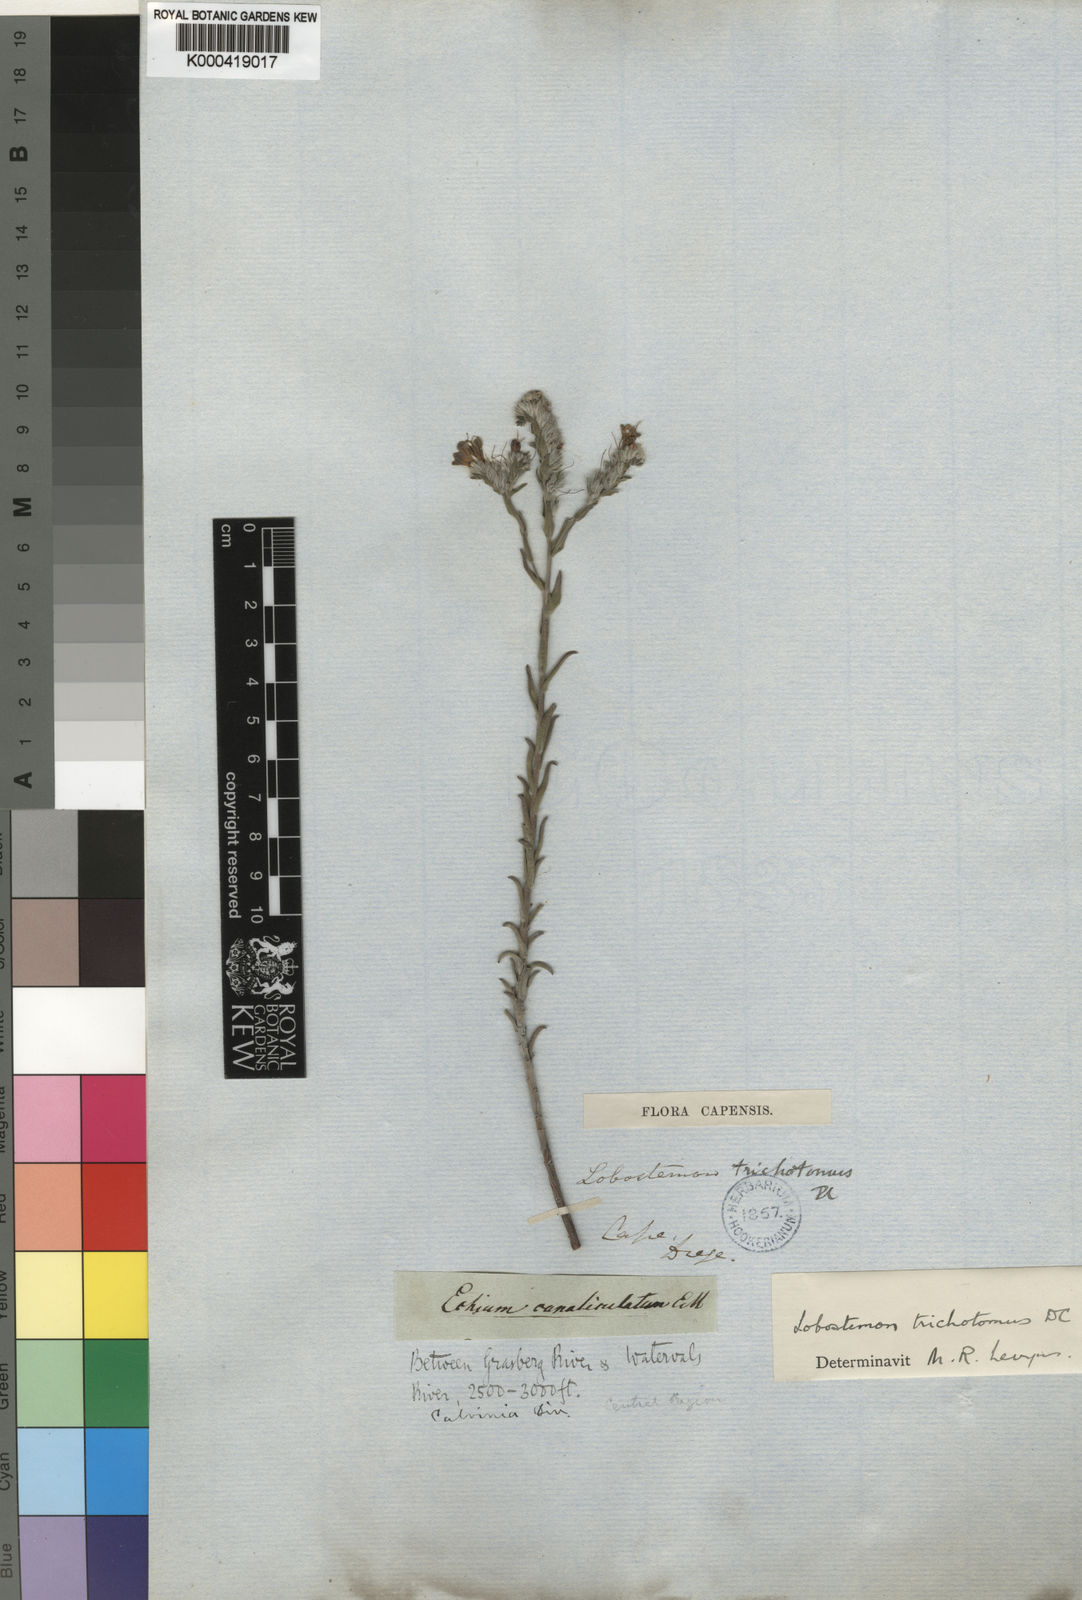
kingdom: Plantae
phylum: Tracheophyta
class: Magnoliopsida
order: Boraginales
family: Boraginaceae
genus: Lobostemon
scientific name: Lobostemon trichotomus
